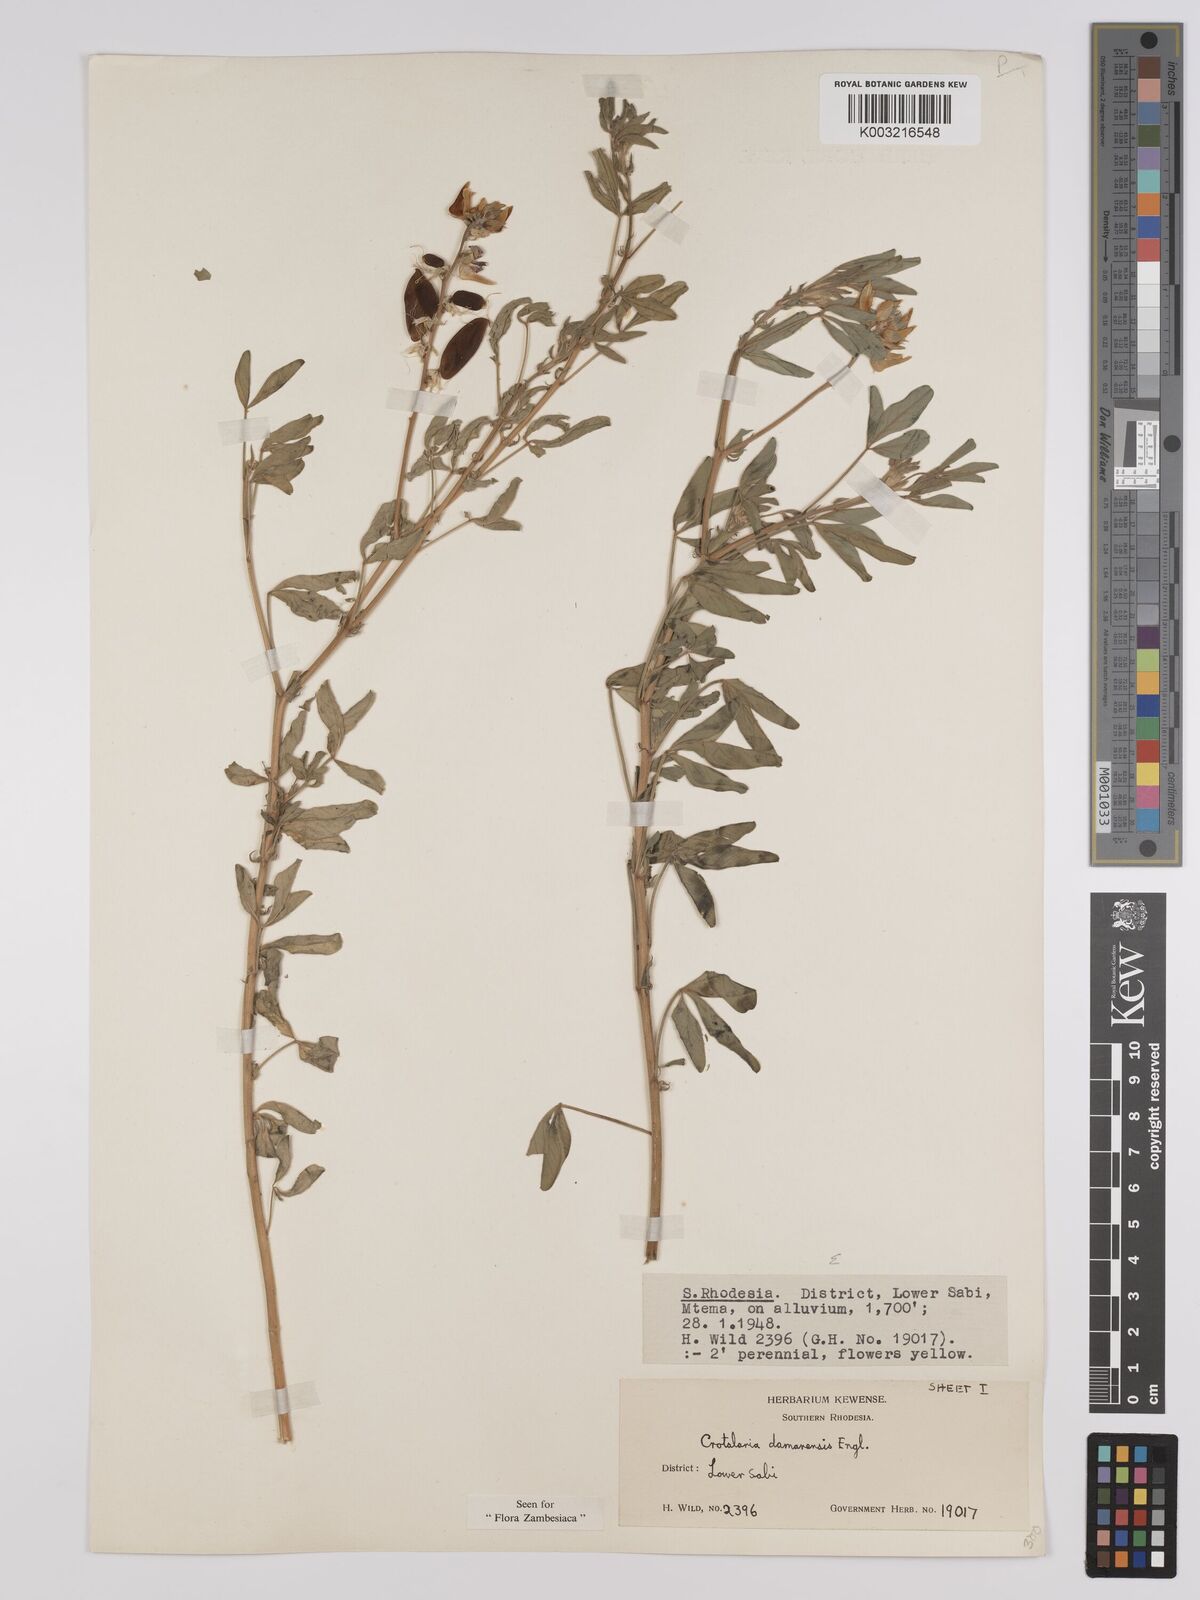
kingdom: Plantae
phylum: Tracheophyta
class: Magnoliopsida
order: Fabales
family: Fabaceae
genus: Crotalaria
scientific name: Crotalaria damarensis
